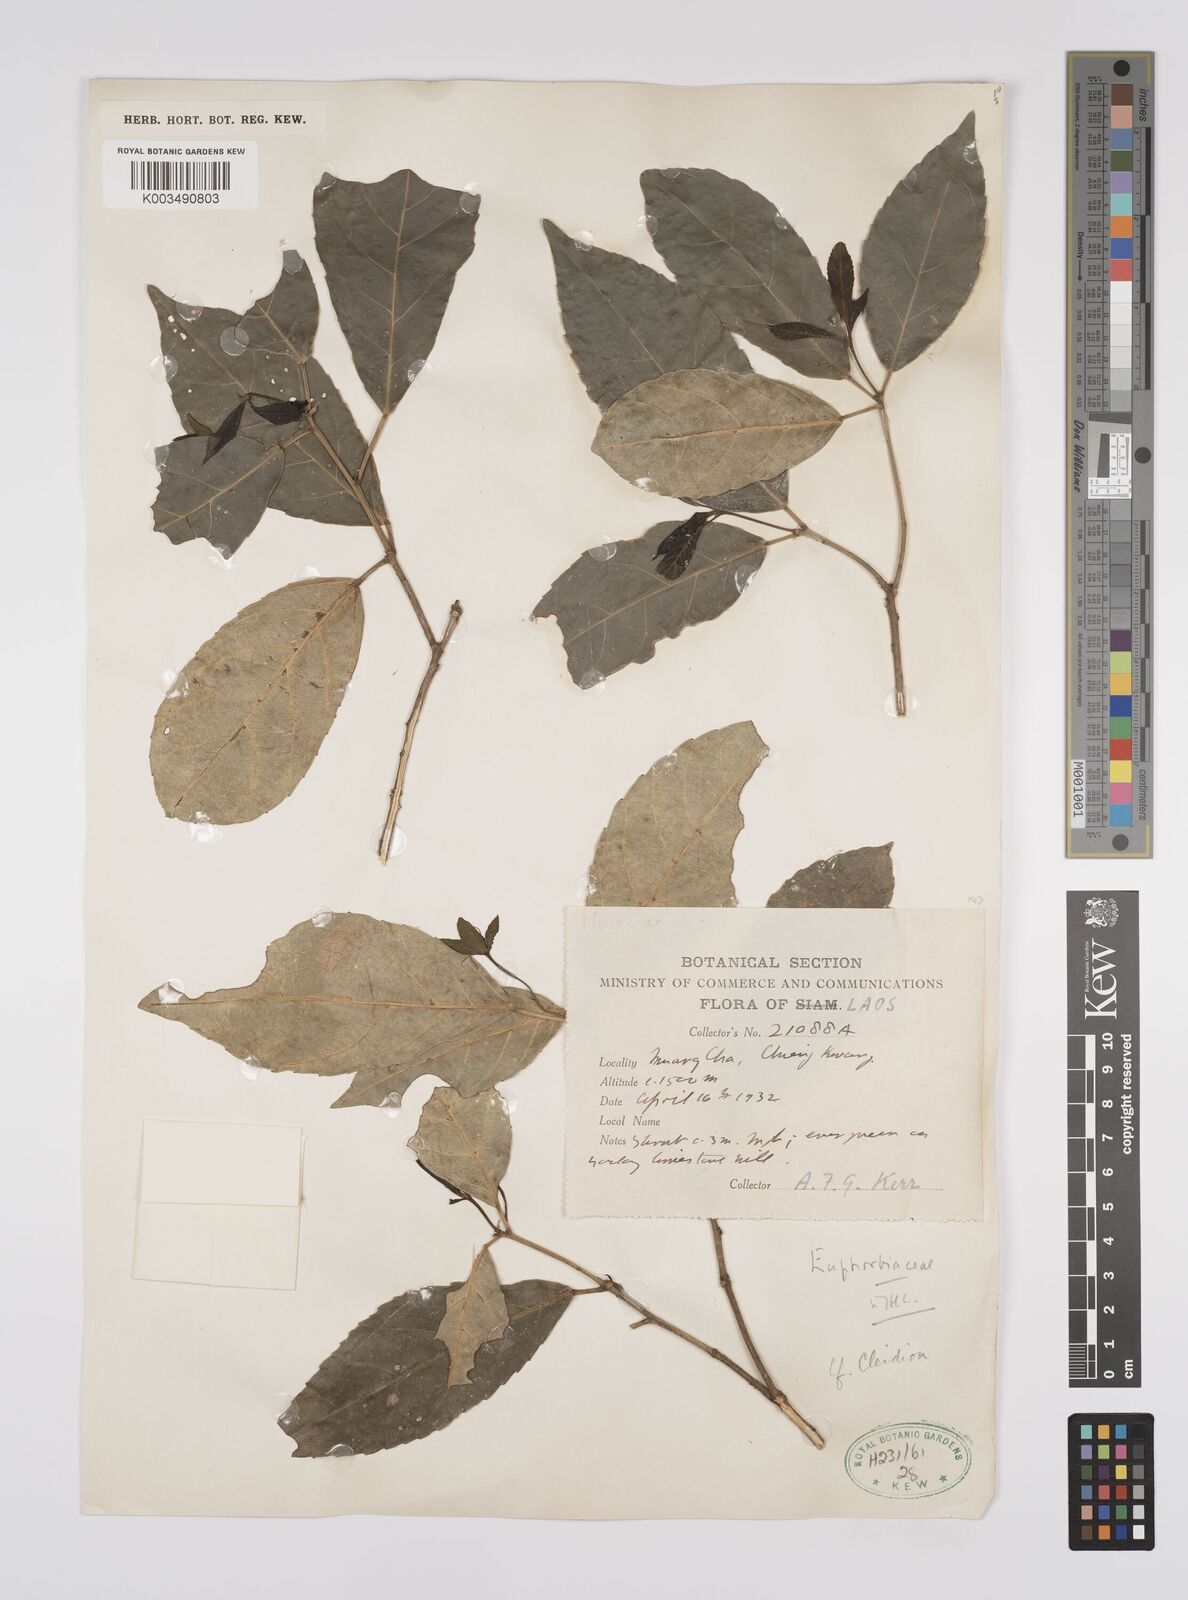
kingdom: Plantae
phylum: Tracheophyta
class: Magnoliopsida
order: Malpighiales
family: Euphorbiaceae
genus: Cleidion
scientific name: Cleidion brevipetiolatum
